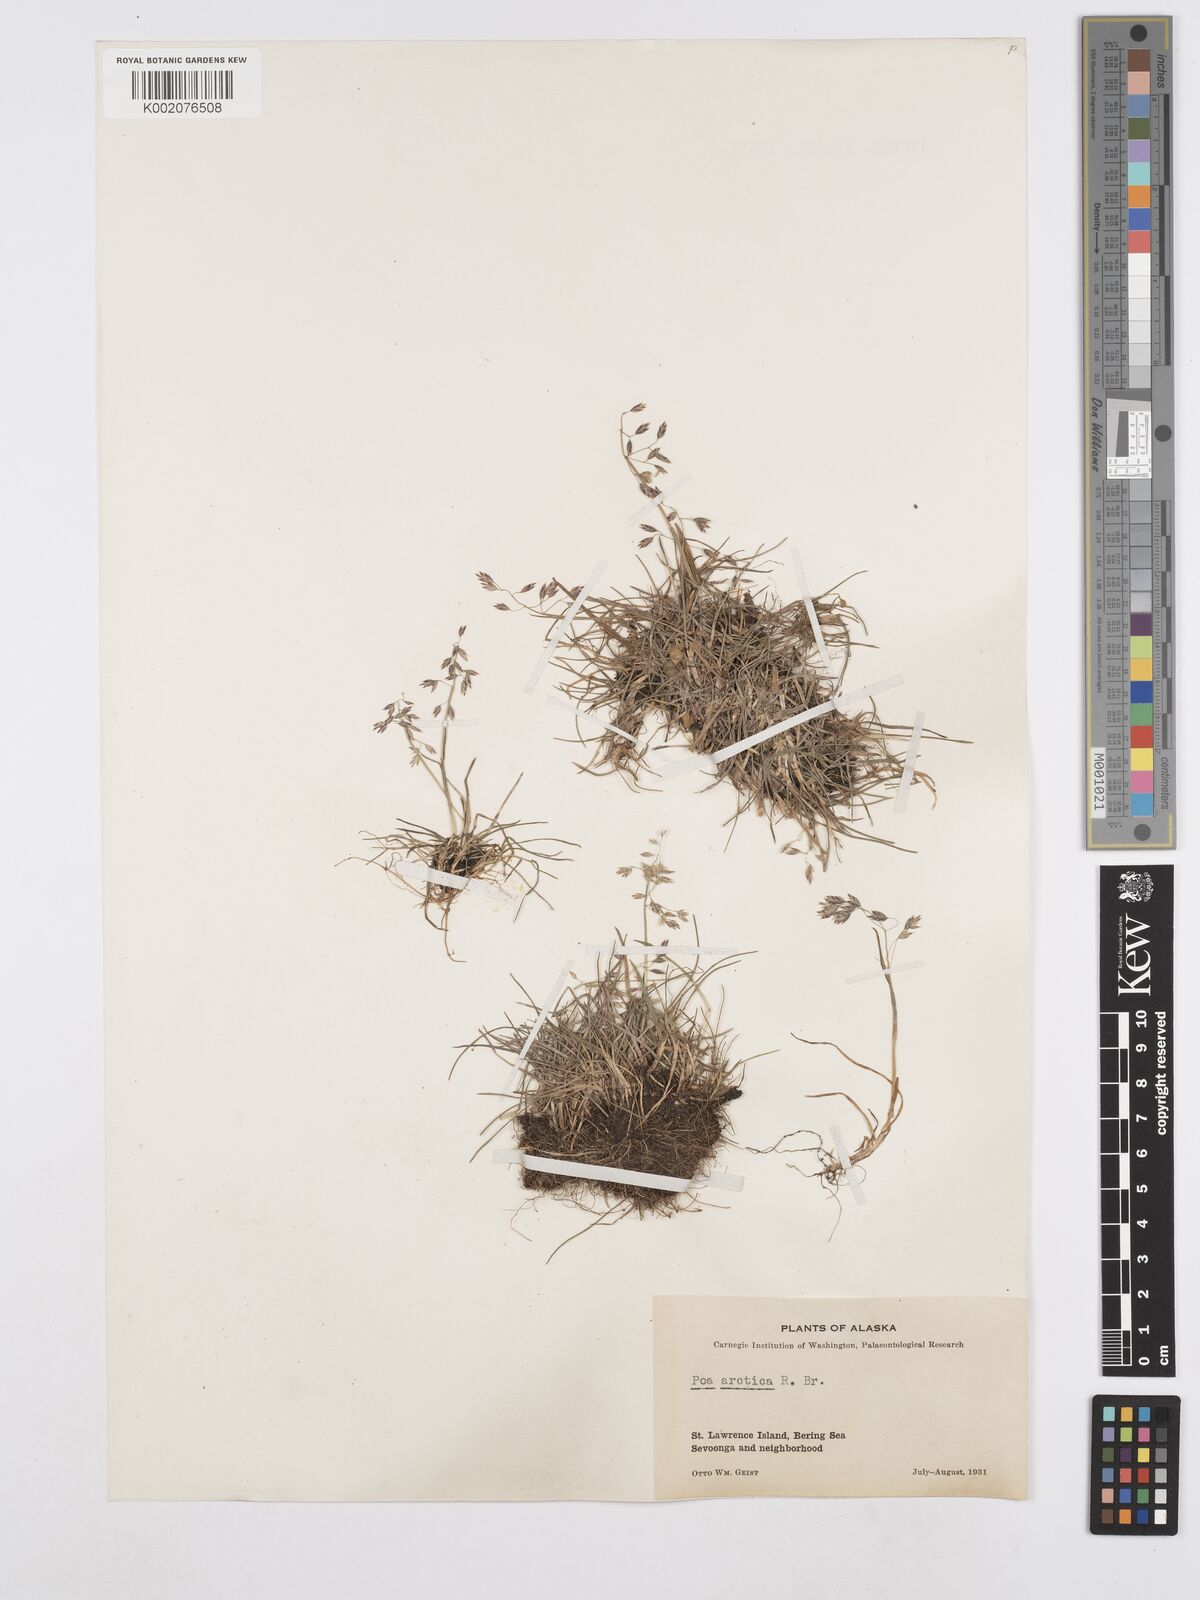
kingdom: Plantae
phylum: Tracheophyta
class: Liliopsida
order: Poales
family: Poaceae
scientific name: Poaceae
